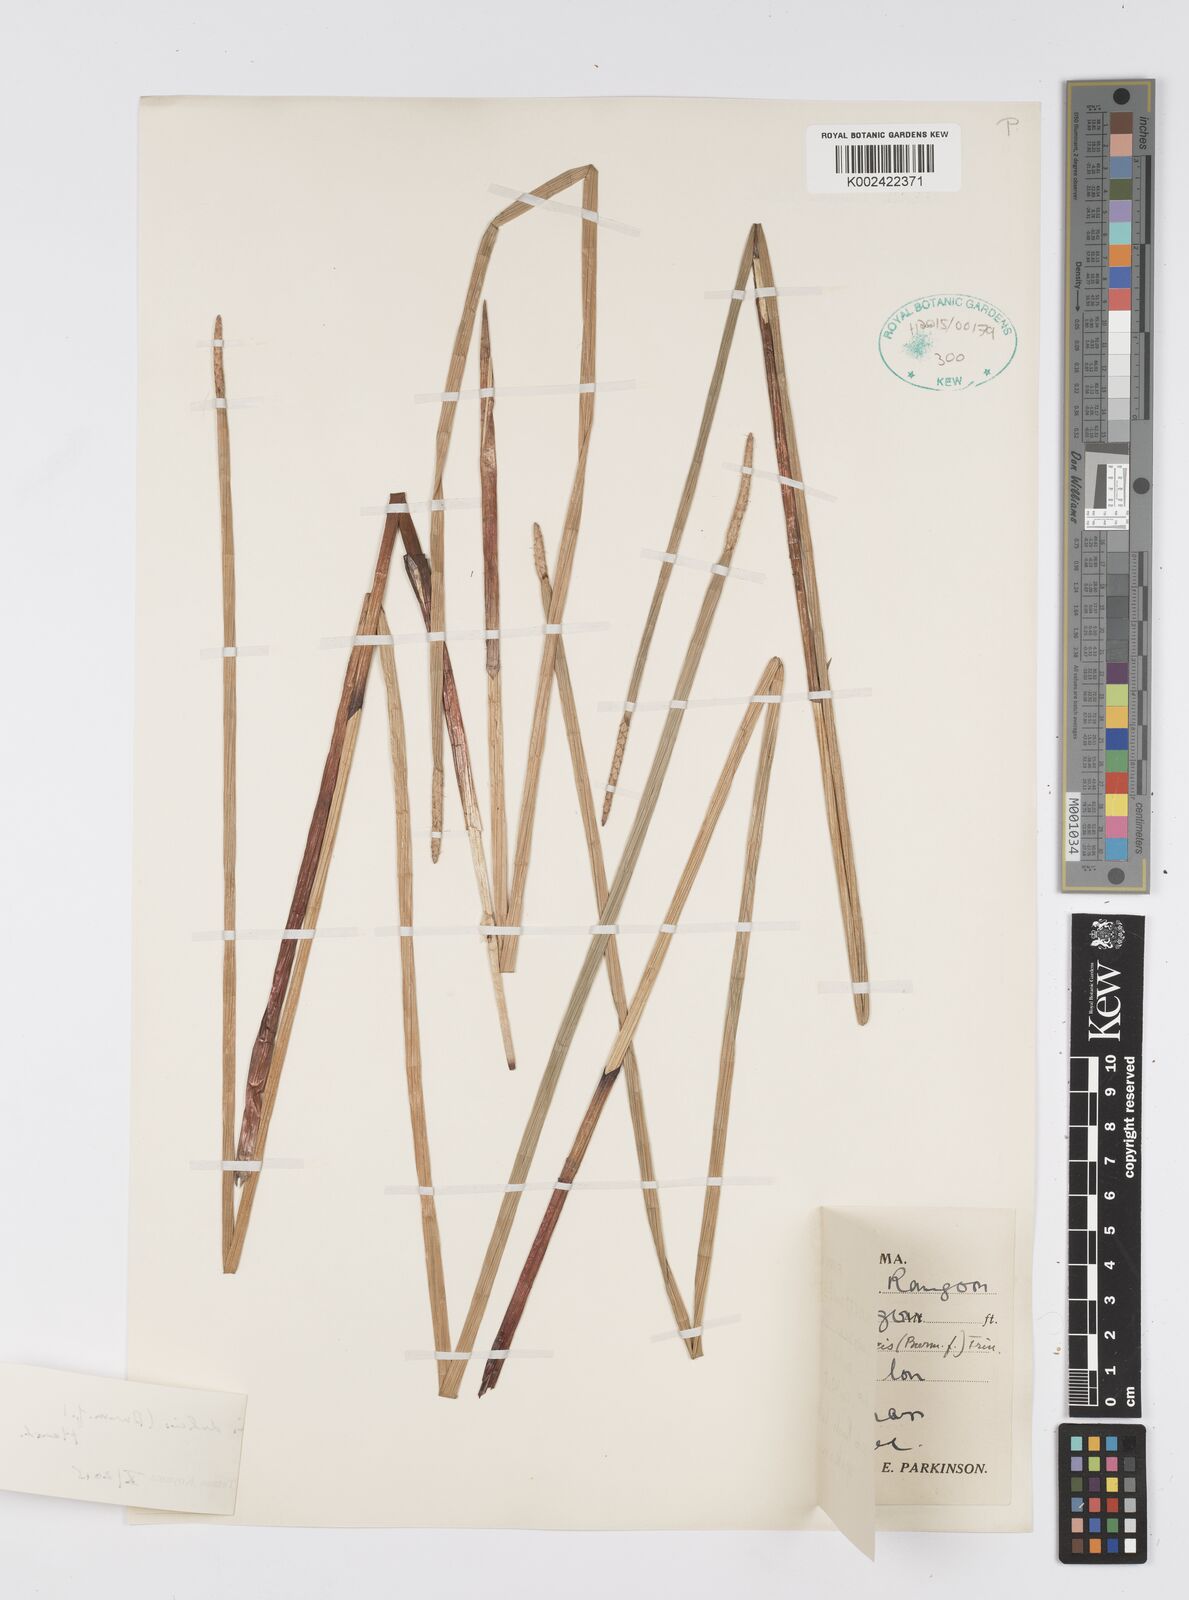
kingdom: Plantae
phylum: Tracheophyta
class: Liliopsida
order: Poales
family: Cyperaceae
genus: Eleocharis
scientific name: Eleocharis dulcis
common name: Chinese water chestnut
